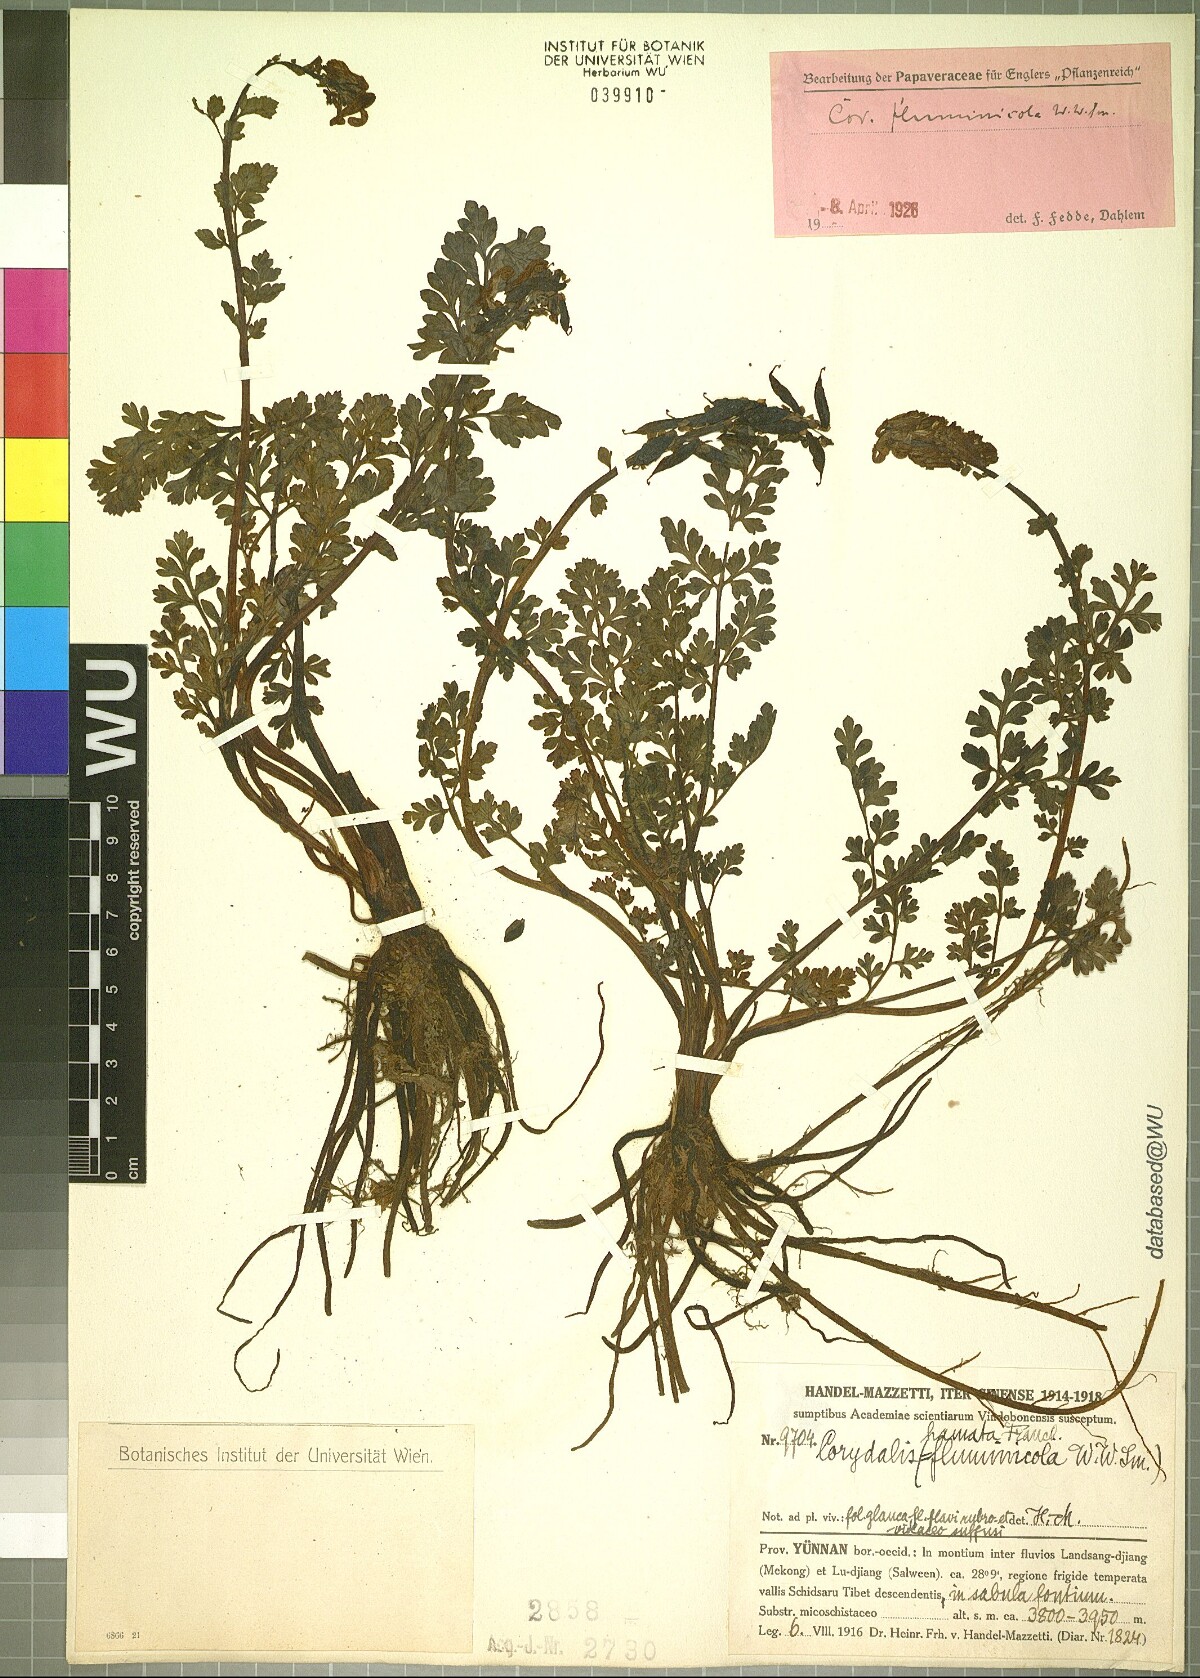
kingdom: Plantae
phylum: Tracheophyta
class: Magnoliopsida
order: Ranunculales
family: Papaveraceae
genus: Corydalis
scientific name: Corydalis hamata
